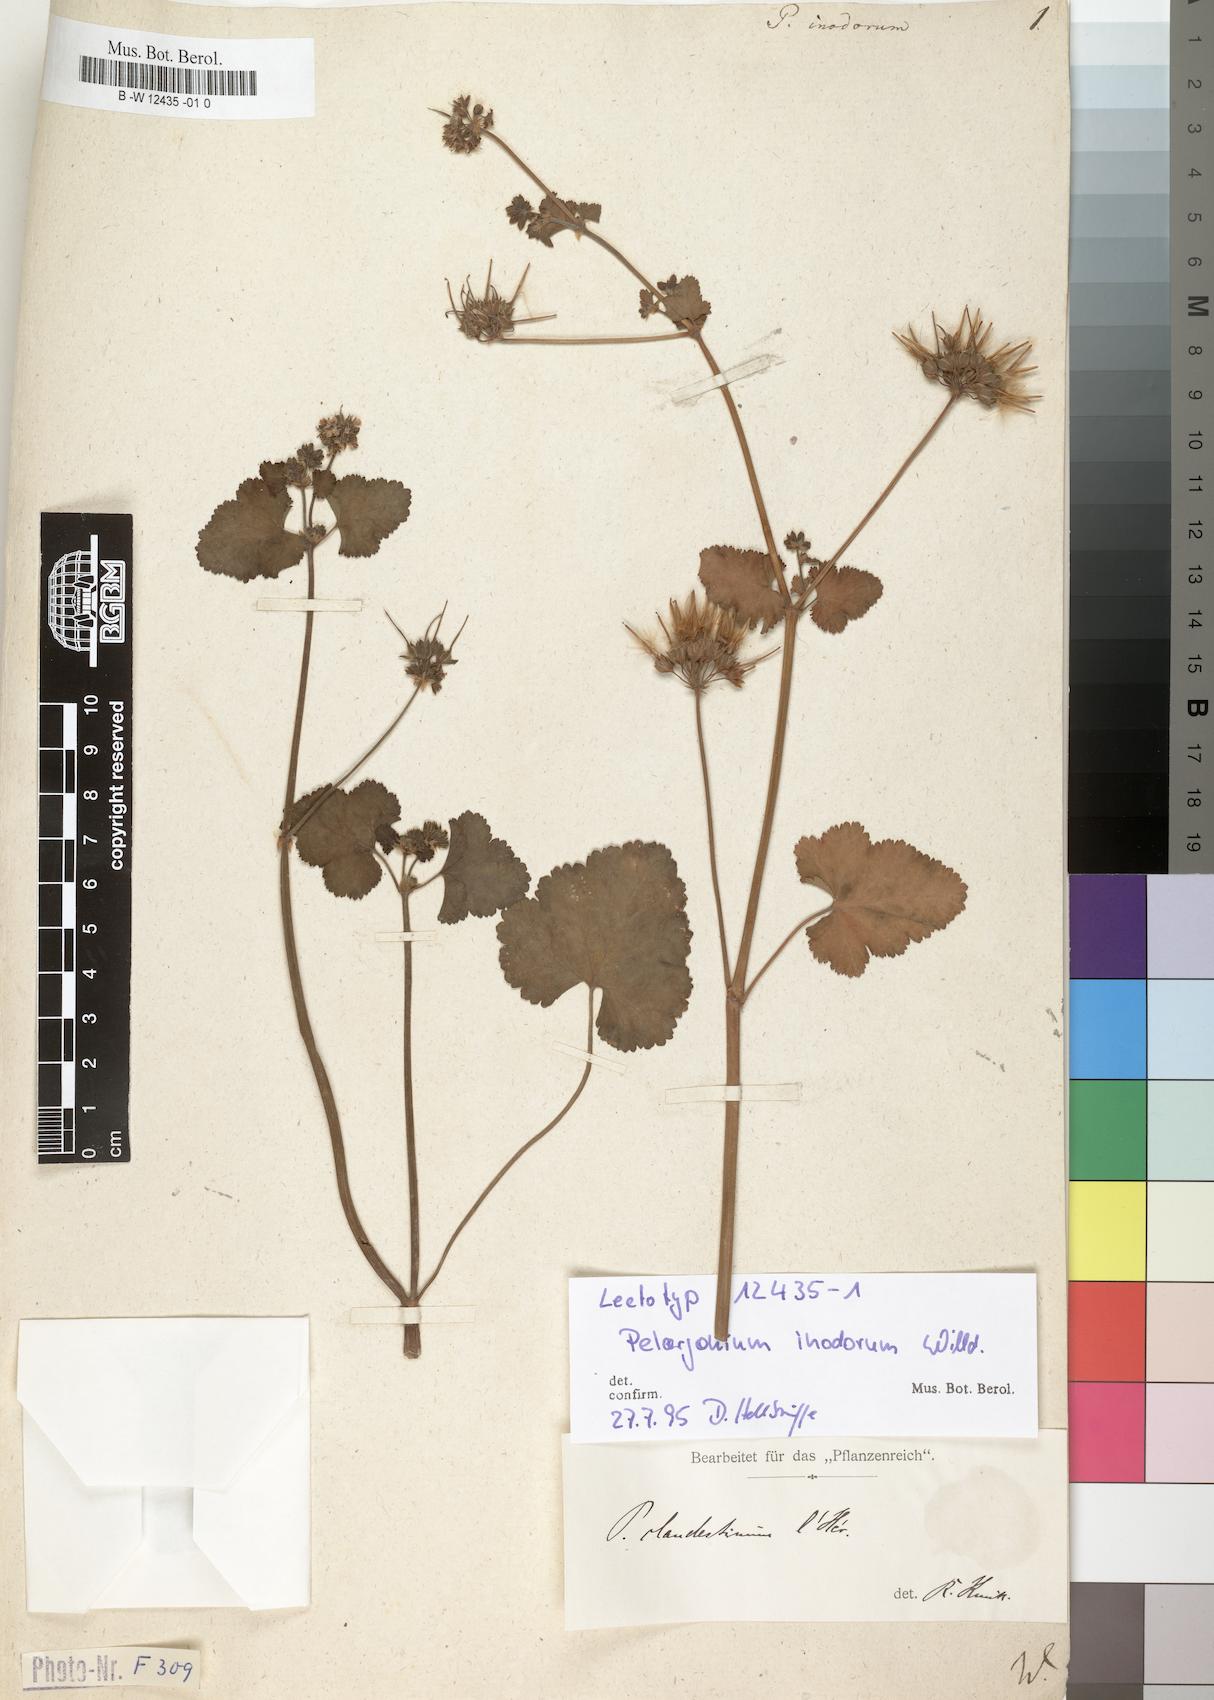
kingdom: Plantae
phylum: Tracheophyta
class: Magnoliopsida
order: Geraniales
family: Geraniaceae
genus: Pelargonium
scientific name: Pelargonium inodorum
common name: Kopata geranium
